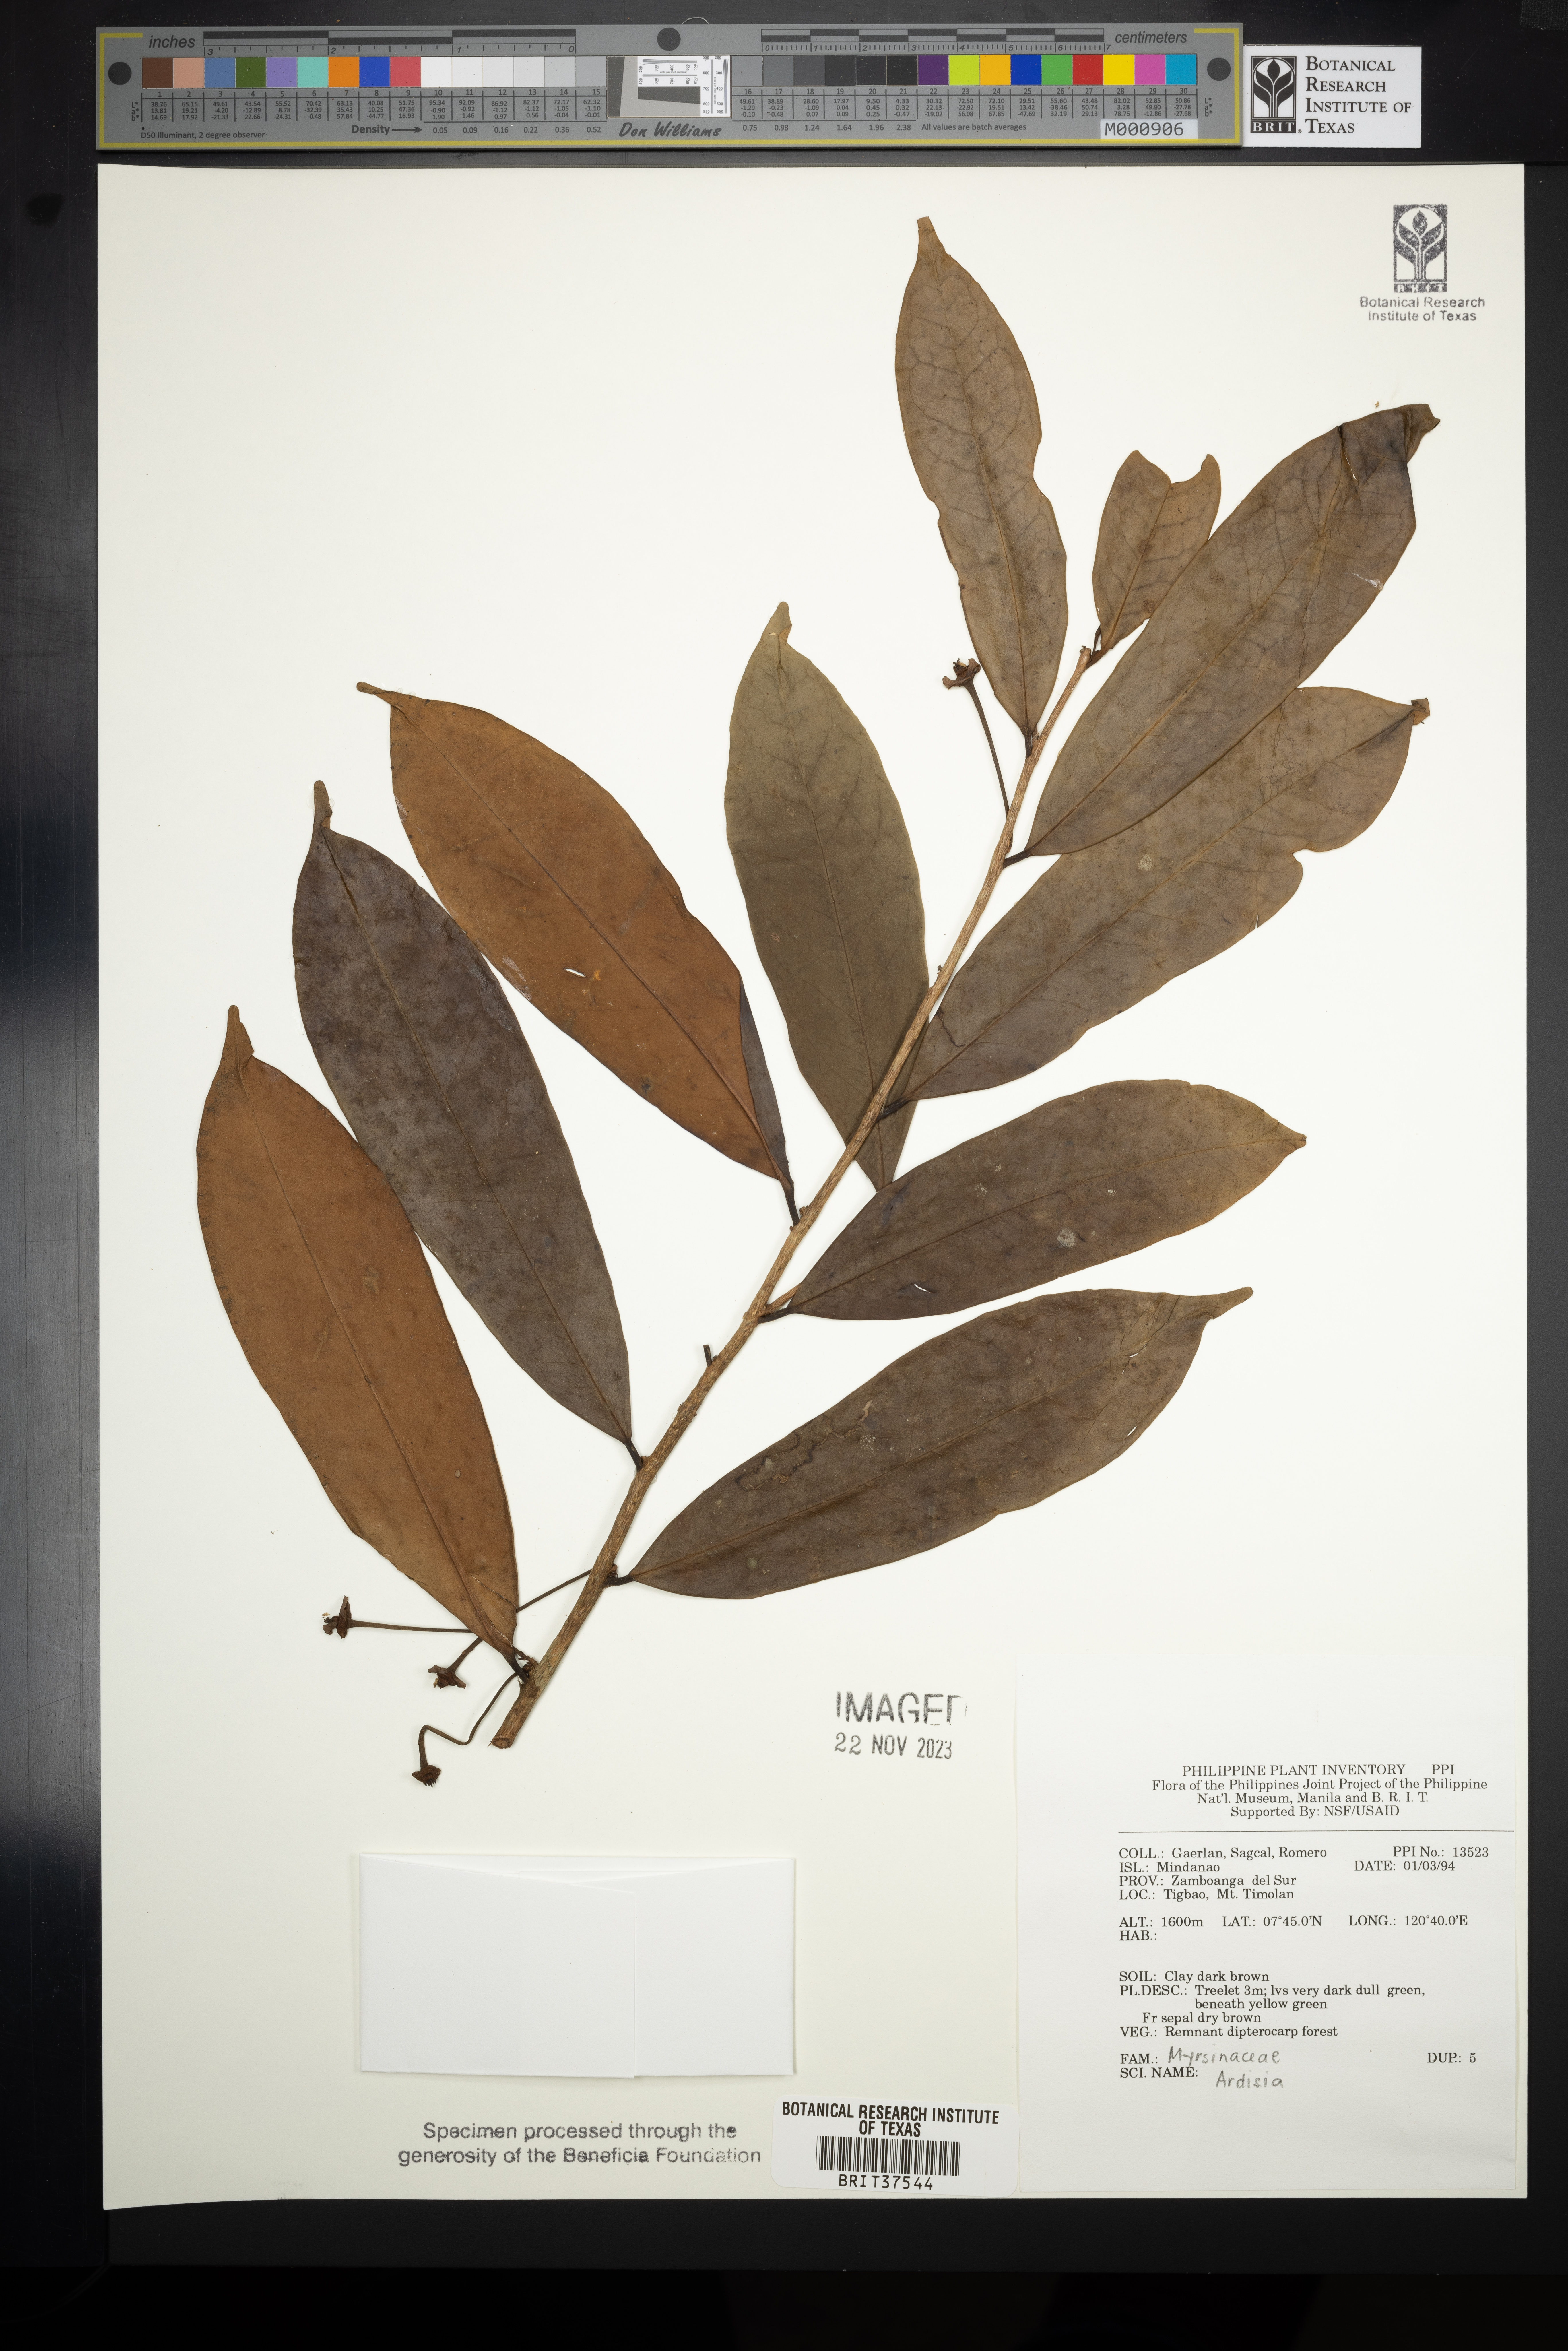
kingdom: Plantae
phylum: Tracheophyta
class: Magnoliopsida
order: Ericales
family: Primulaceae
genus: Ardisia
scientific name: Ardisia
